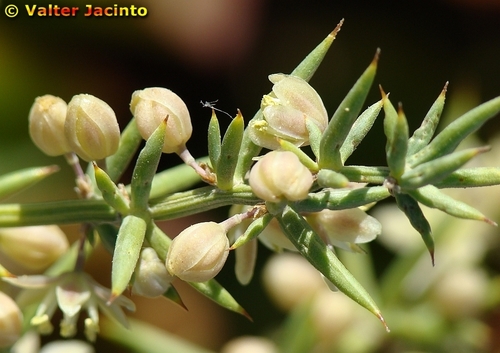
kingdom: Plantae
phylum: Tracheophyta
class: Liliopsida
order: Asparagales
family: Asparagaceae
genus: Asparagus
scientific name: Asparagus aphyllus
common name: Mediterranean asparagus
